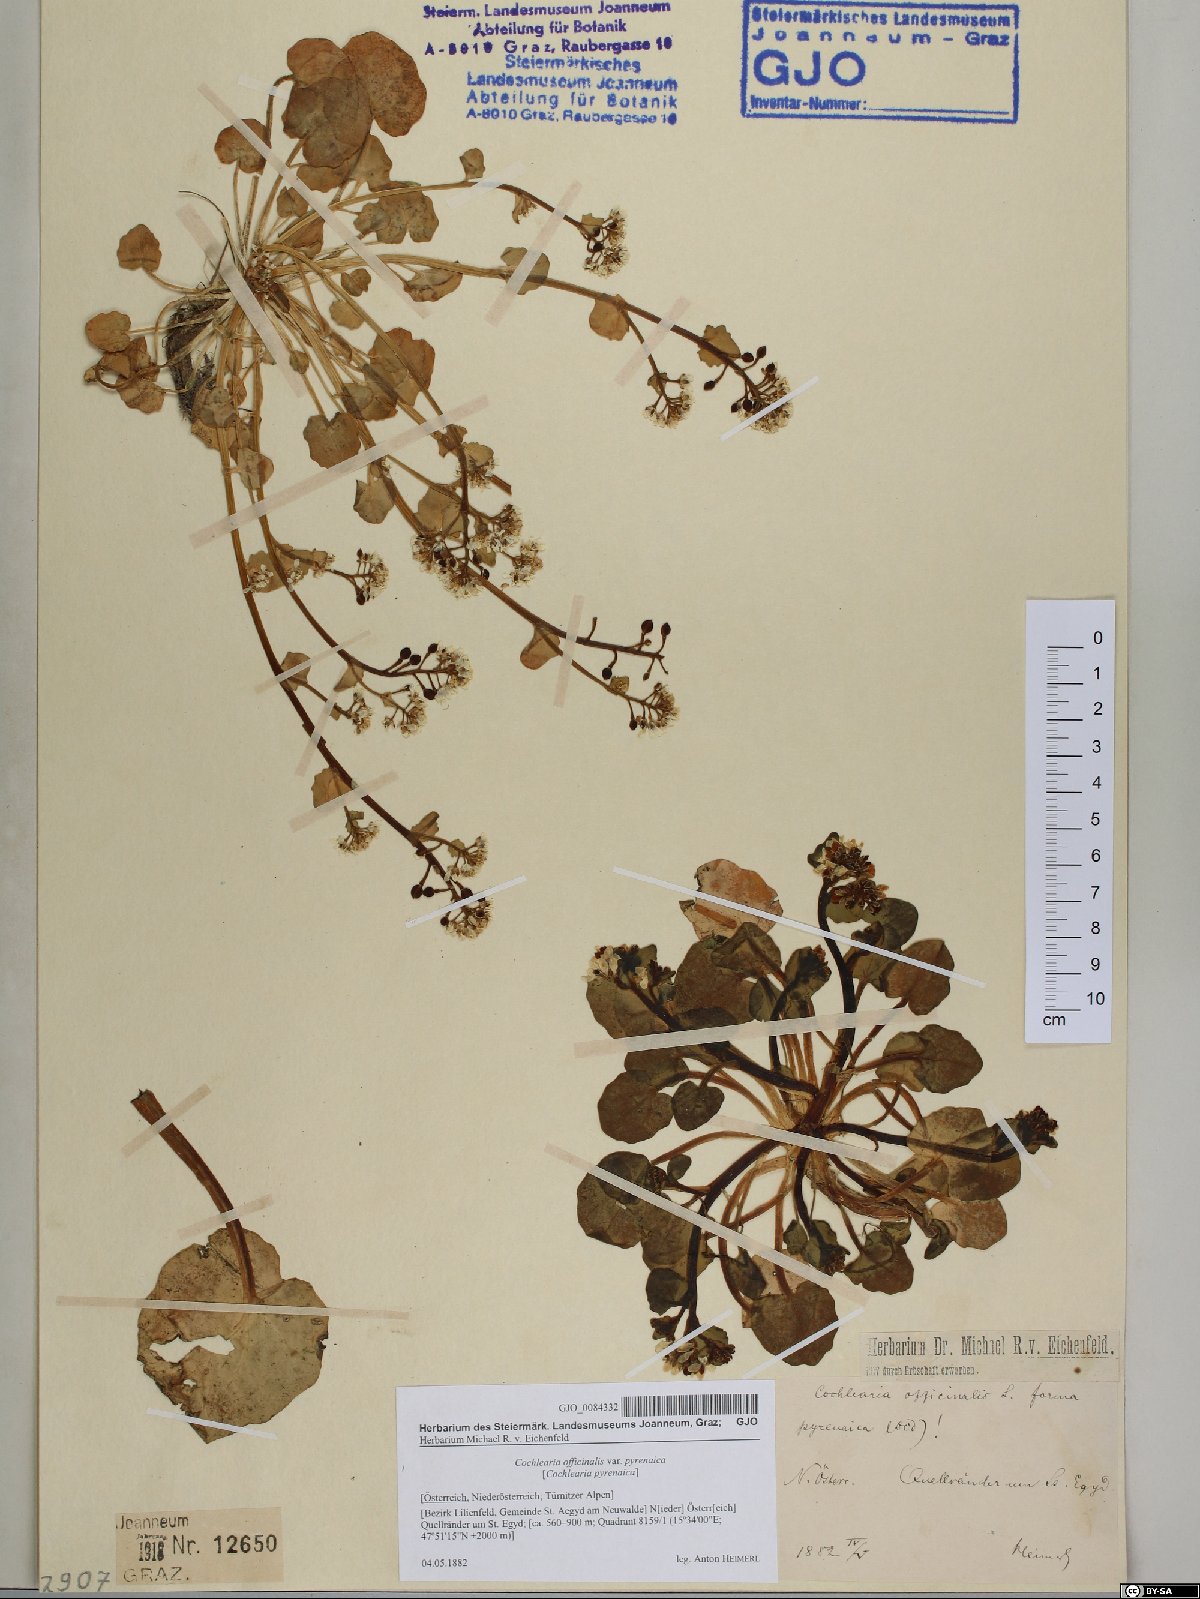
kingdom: Plantae
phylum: Tracheophyta
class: Magnoliopsida
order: Brassicales
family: Brassicaceae
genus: Cochlearia
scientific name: Cochlearia pyrenaica
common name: Upland scurvy-grass
